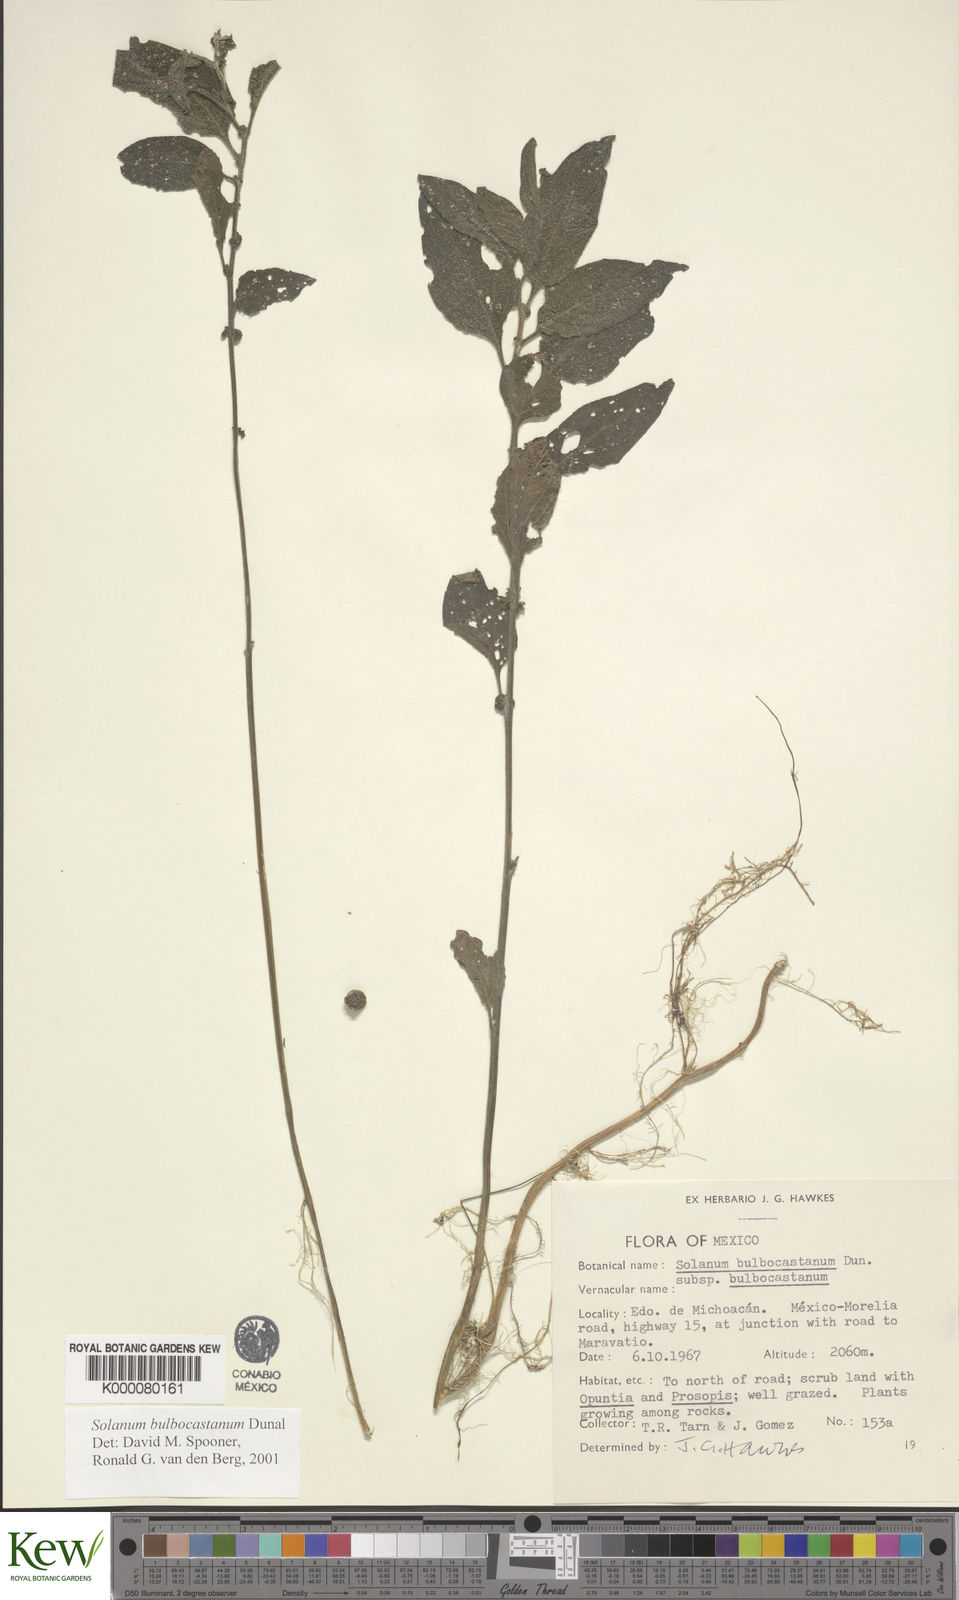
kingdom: Plantae
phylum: Tracheophyta
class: Magnoliopsida
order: Solanales
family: Solanaceae
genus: Solanum
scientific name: Solanum bulbocastanum
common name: Ornamental nightshade
